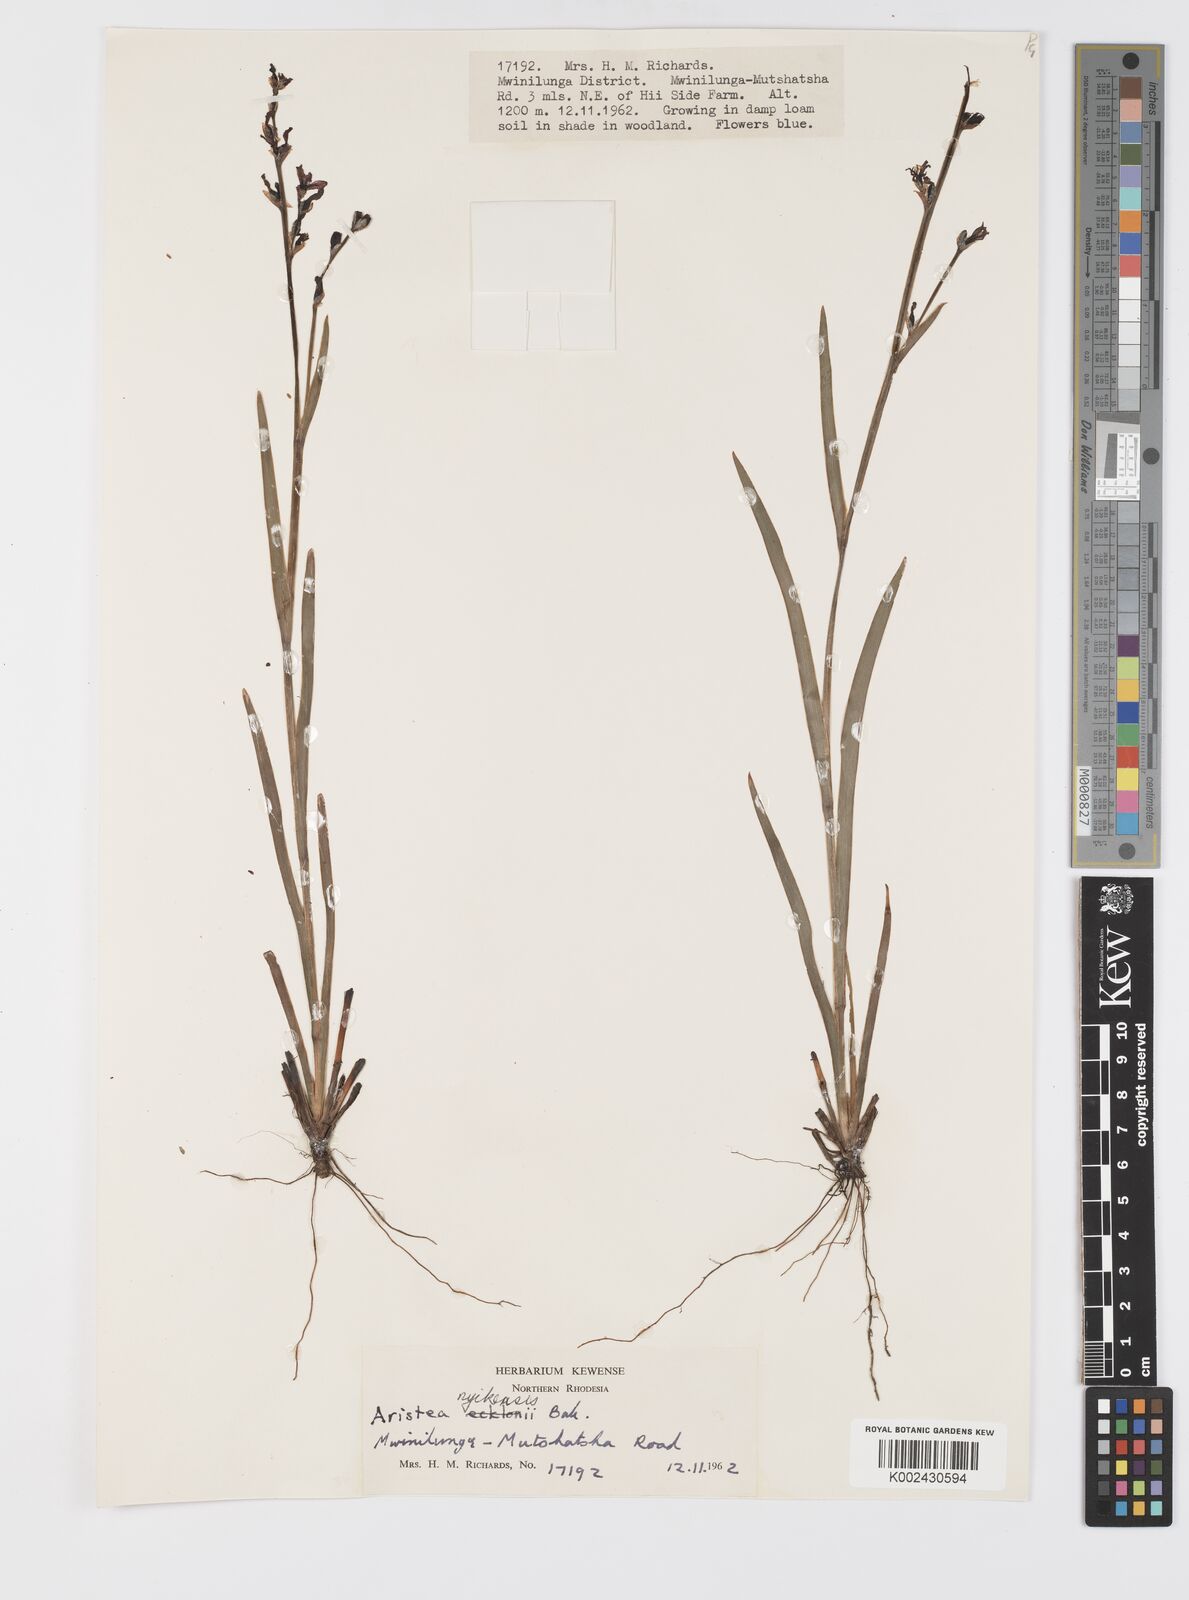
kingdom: Plantae
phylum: Tracheophyta
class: Liliopsida
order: Asparagales
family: Iridaceae
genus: Aristea
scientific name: Aristea nyikensis
